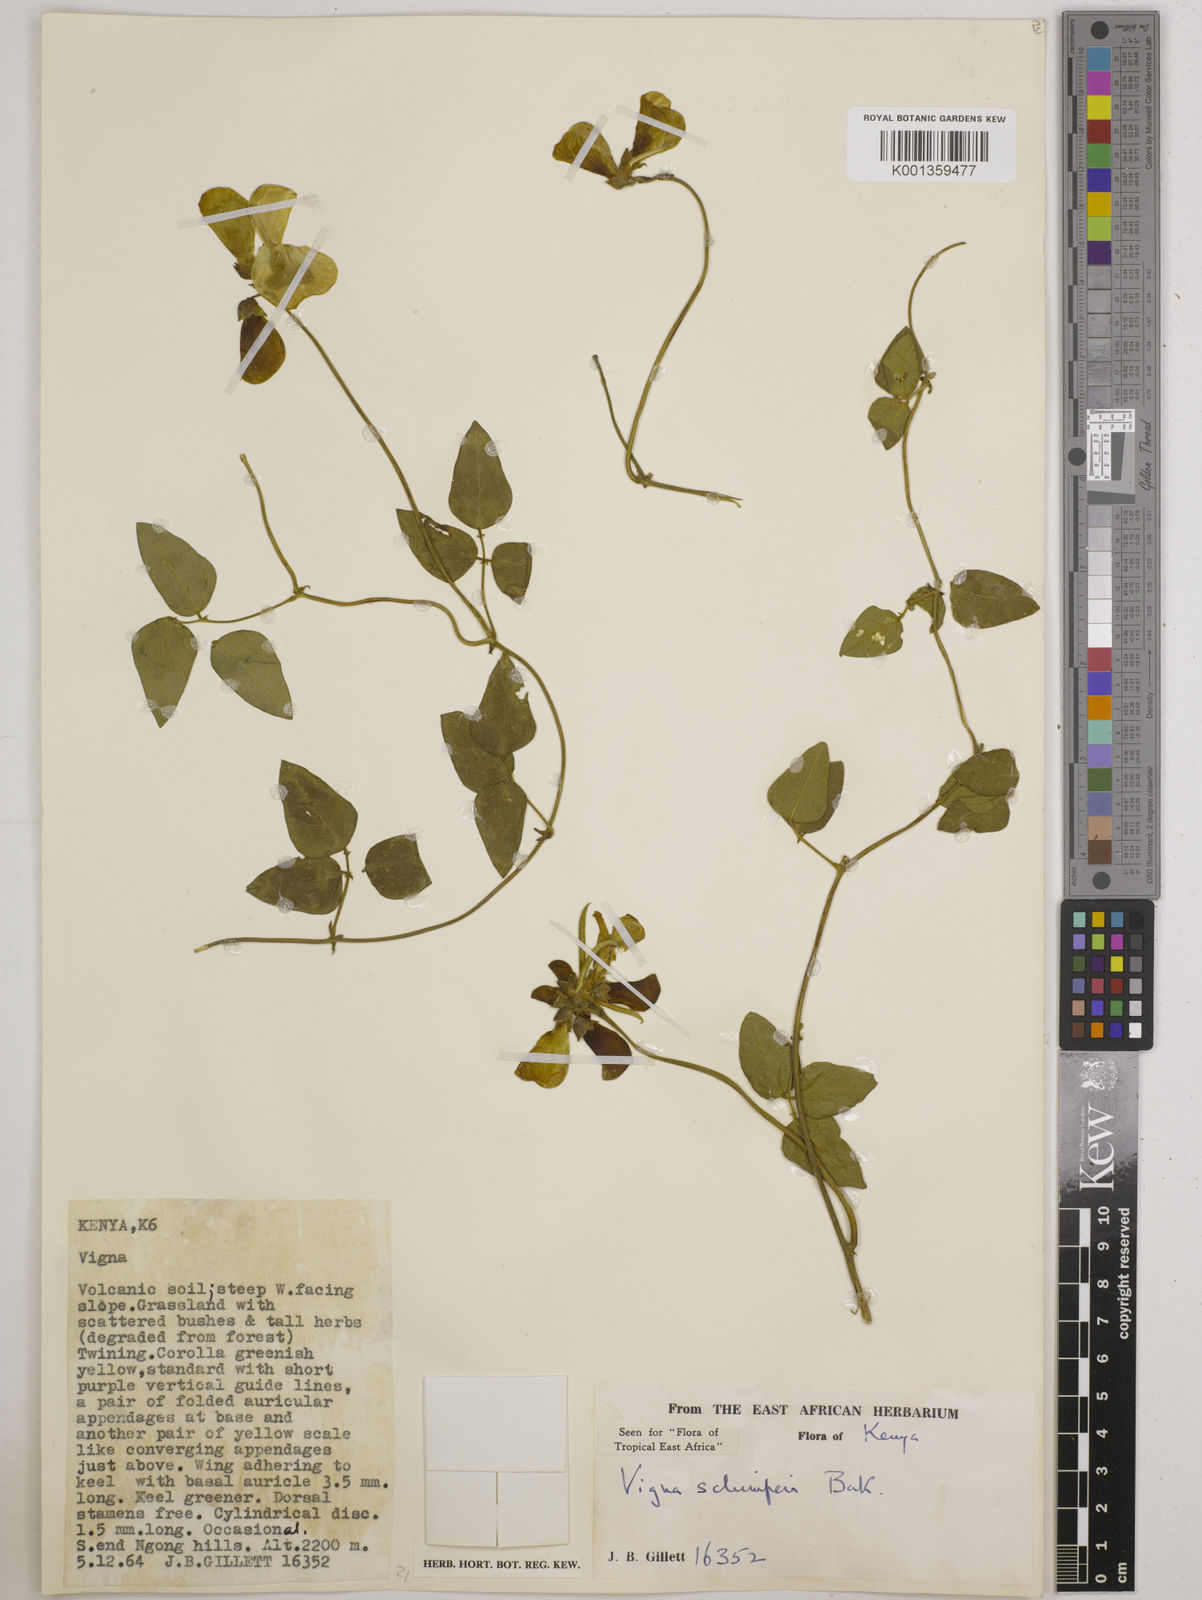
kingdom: Plantae
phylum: Tracheophyta
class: Magnoliopsida
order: Fabales
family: Fabaceae
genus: Vigna
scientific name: Vigna schimperi
